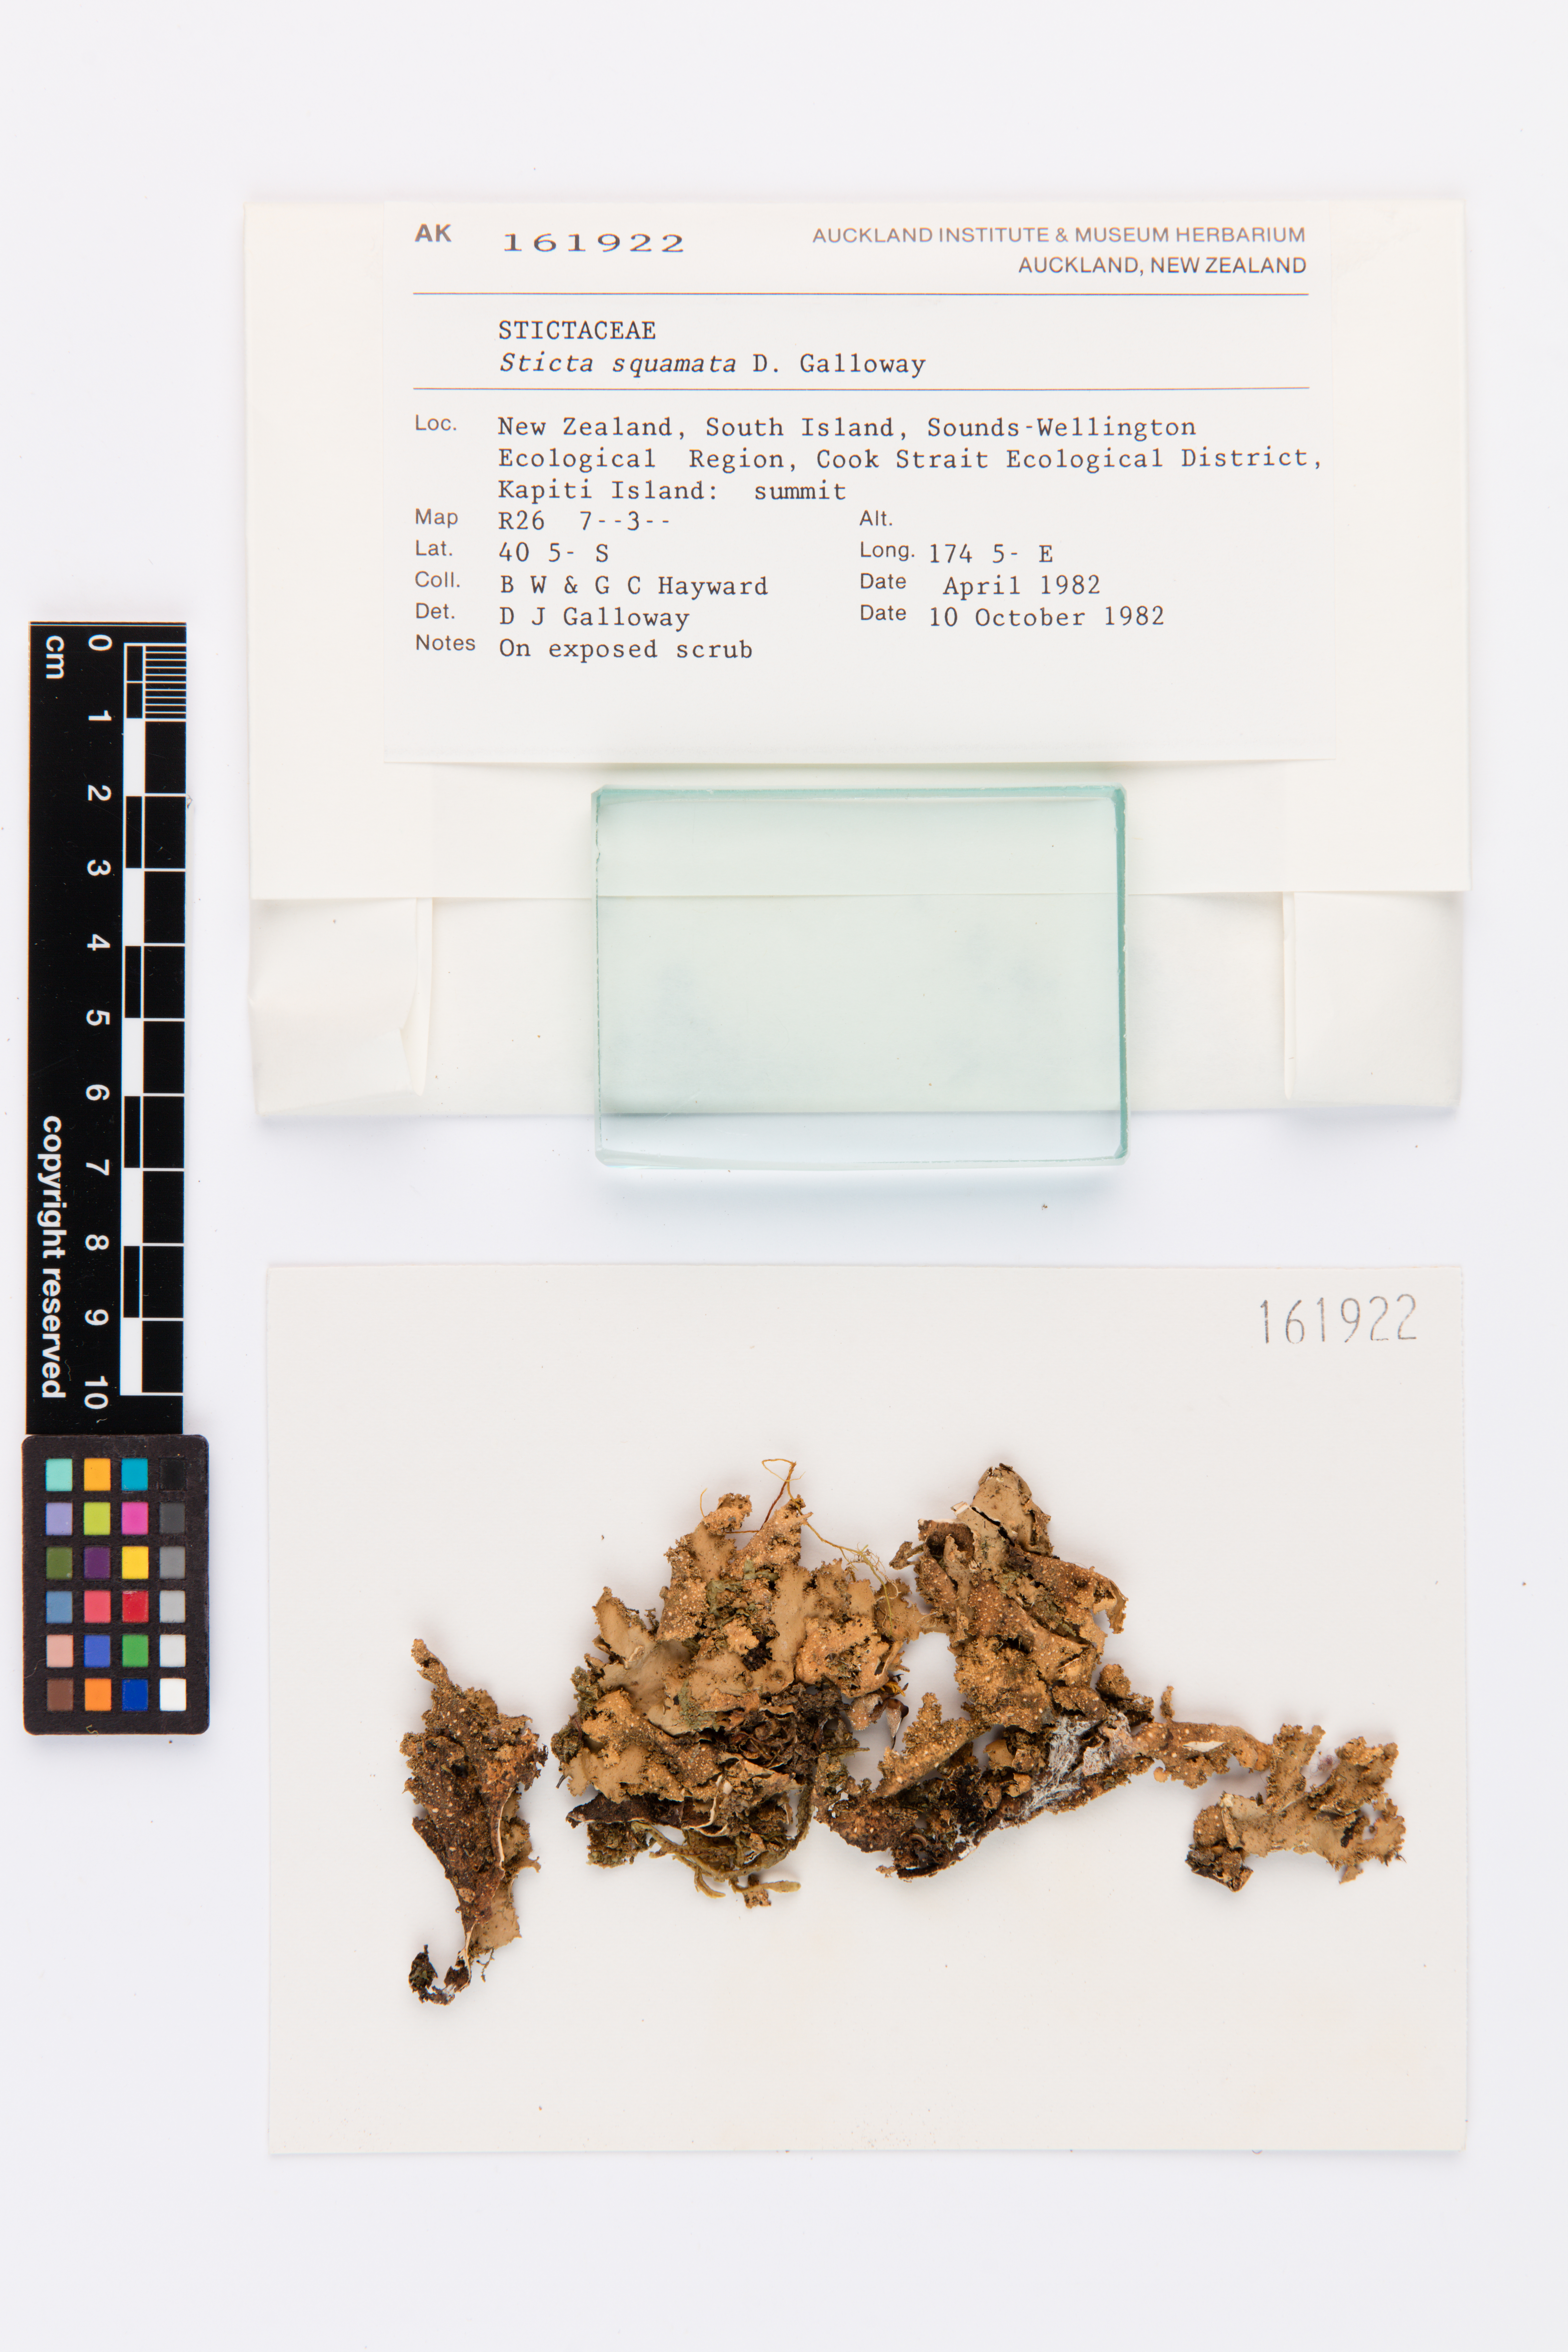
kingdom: Fungi
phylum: Ascomycota
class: Lecanoromycetes
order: Peltigerales
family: Lobariaceae
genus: Sticta
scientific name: Sticta squamata
